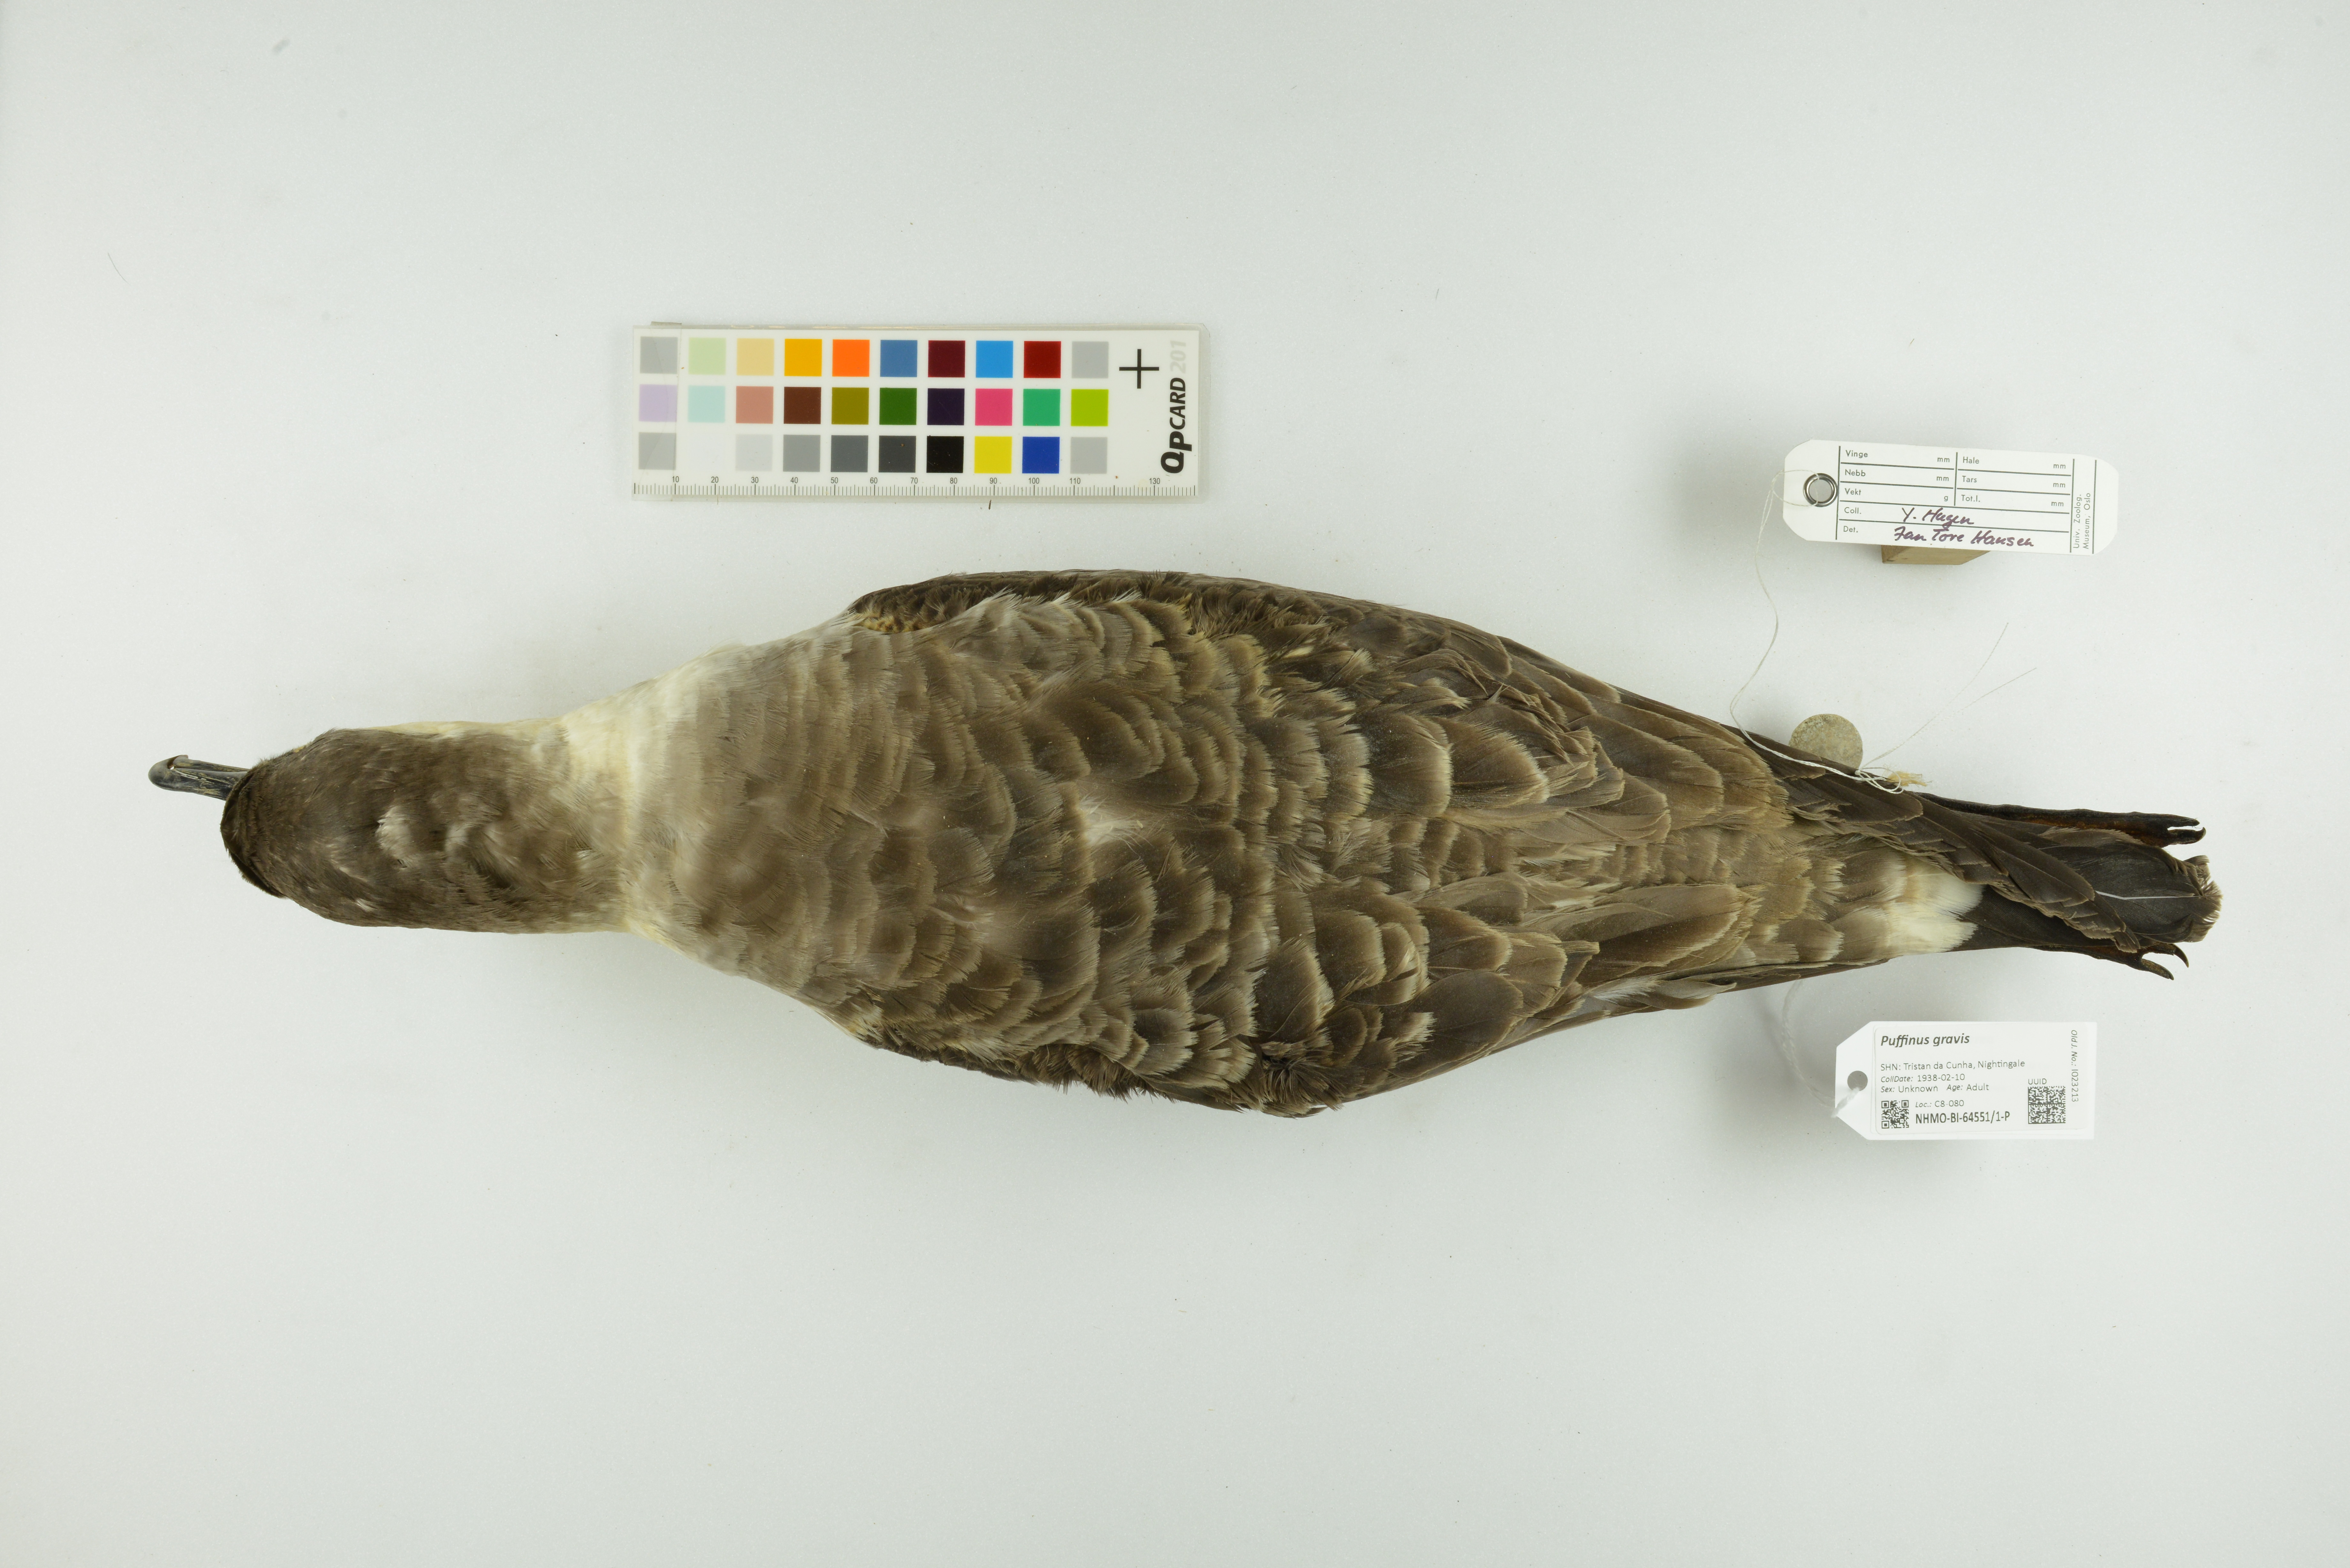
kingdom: Animalia
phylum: Chordata
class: Aves
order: Procellariiformes
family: Procellariidae
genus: Puffinus
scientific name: Puffinus gravis
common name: Great shearwater
